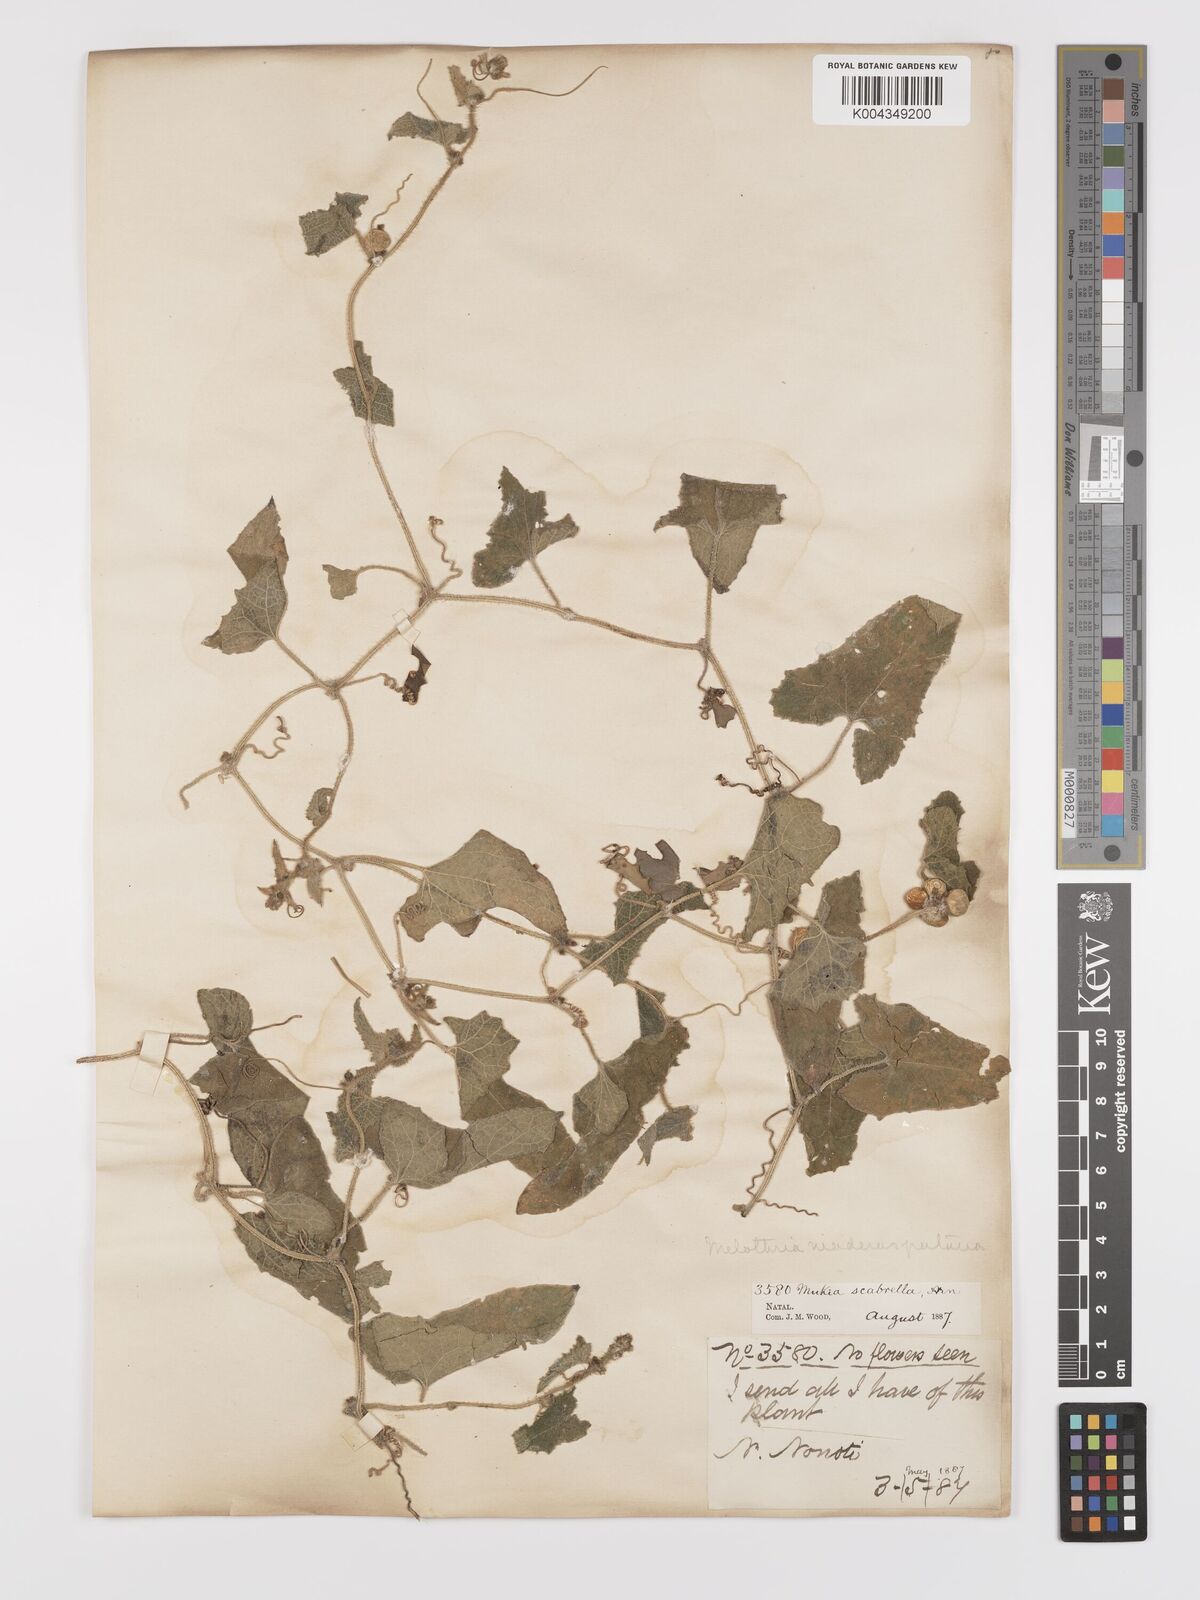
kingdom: Plantae
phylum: Tracheophyta
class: Magnoliopsida
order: Cucurbitales
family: Cucurbitaceae
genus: Cucumis
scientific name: Cucumis maderaspatanus
